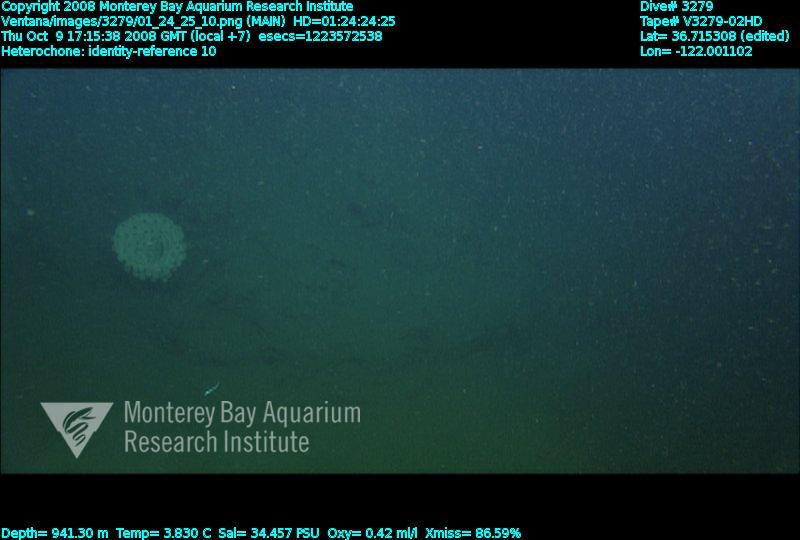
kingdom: Animalia
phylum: Porifera
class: Hexactinellida
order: Sceptrulophora
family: Aphrocallistidae
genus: Heterochone
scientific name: Heterochone
